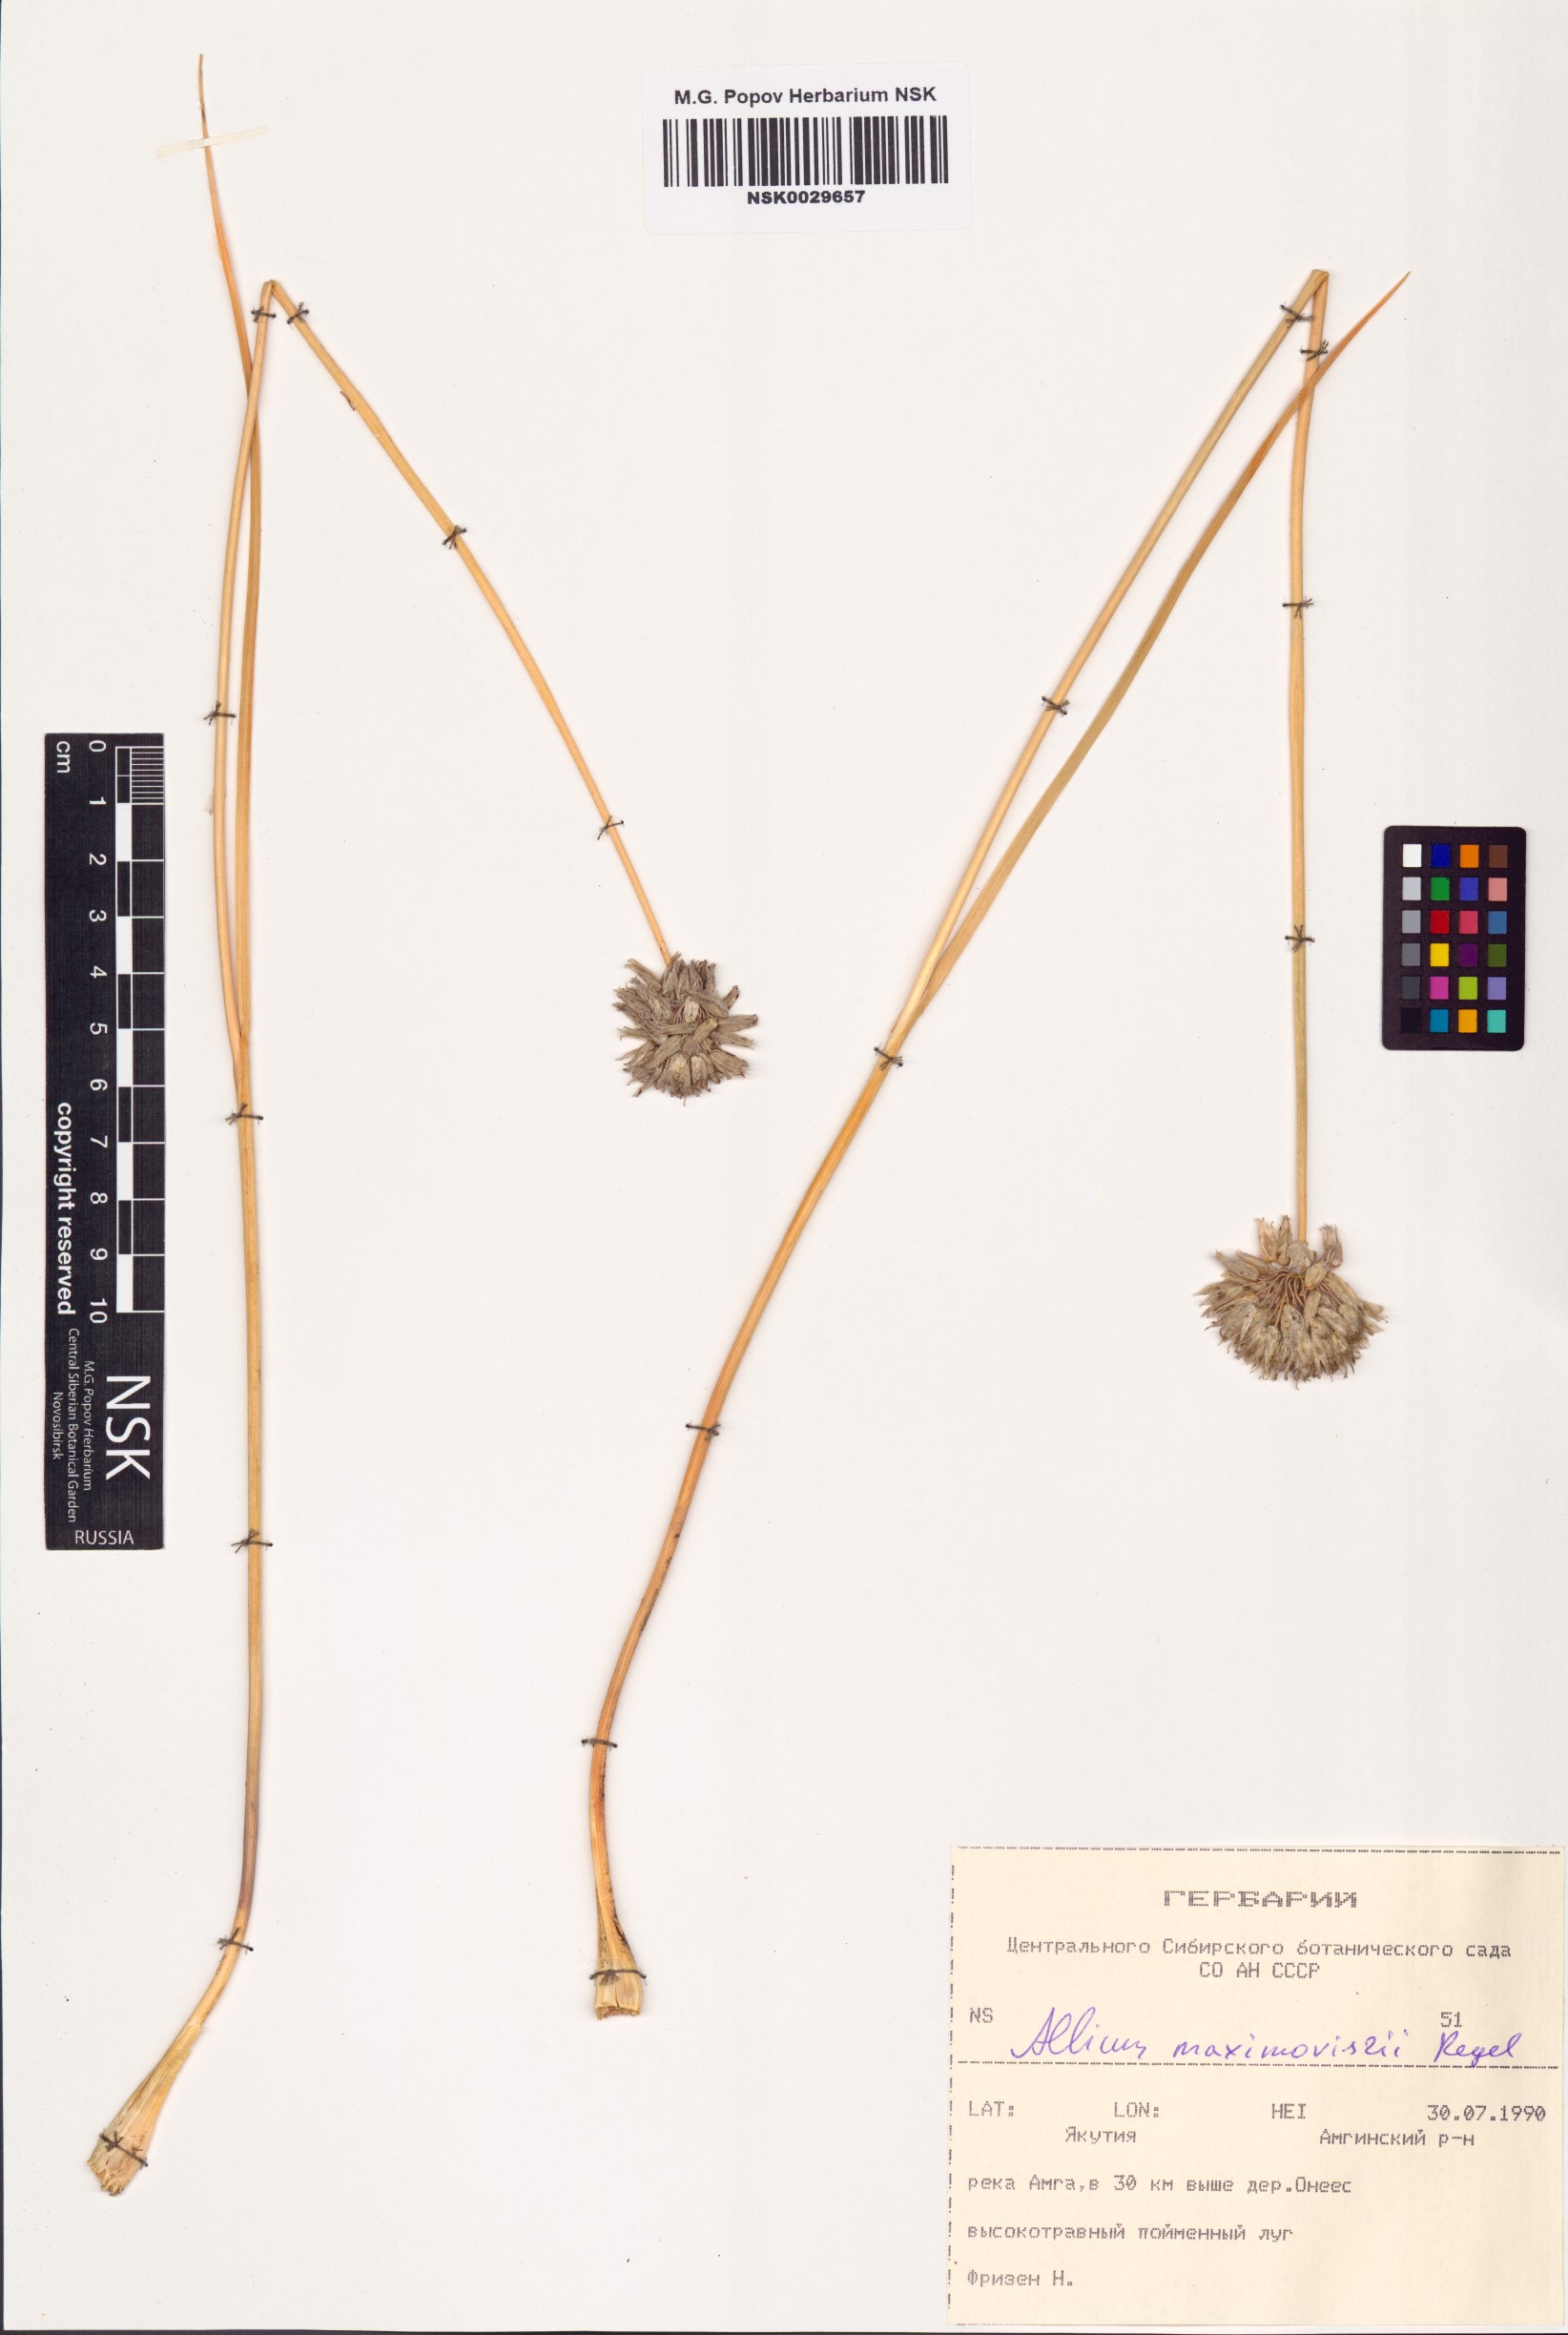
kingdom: Plantae
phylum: Tracheophyta
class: Liliopsida
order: Asparagales
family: Amaryllidaceae
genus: Allium
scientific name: Allium maximowiczii
